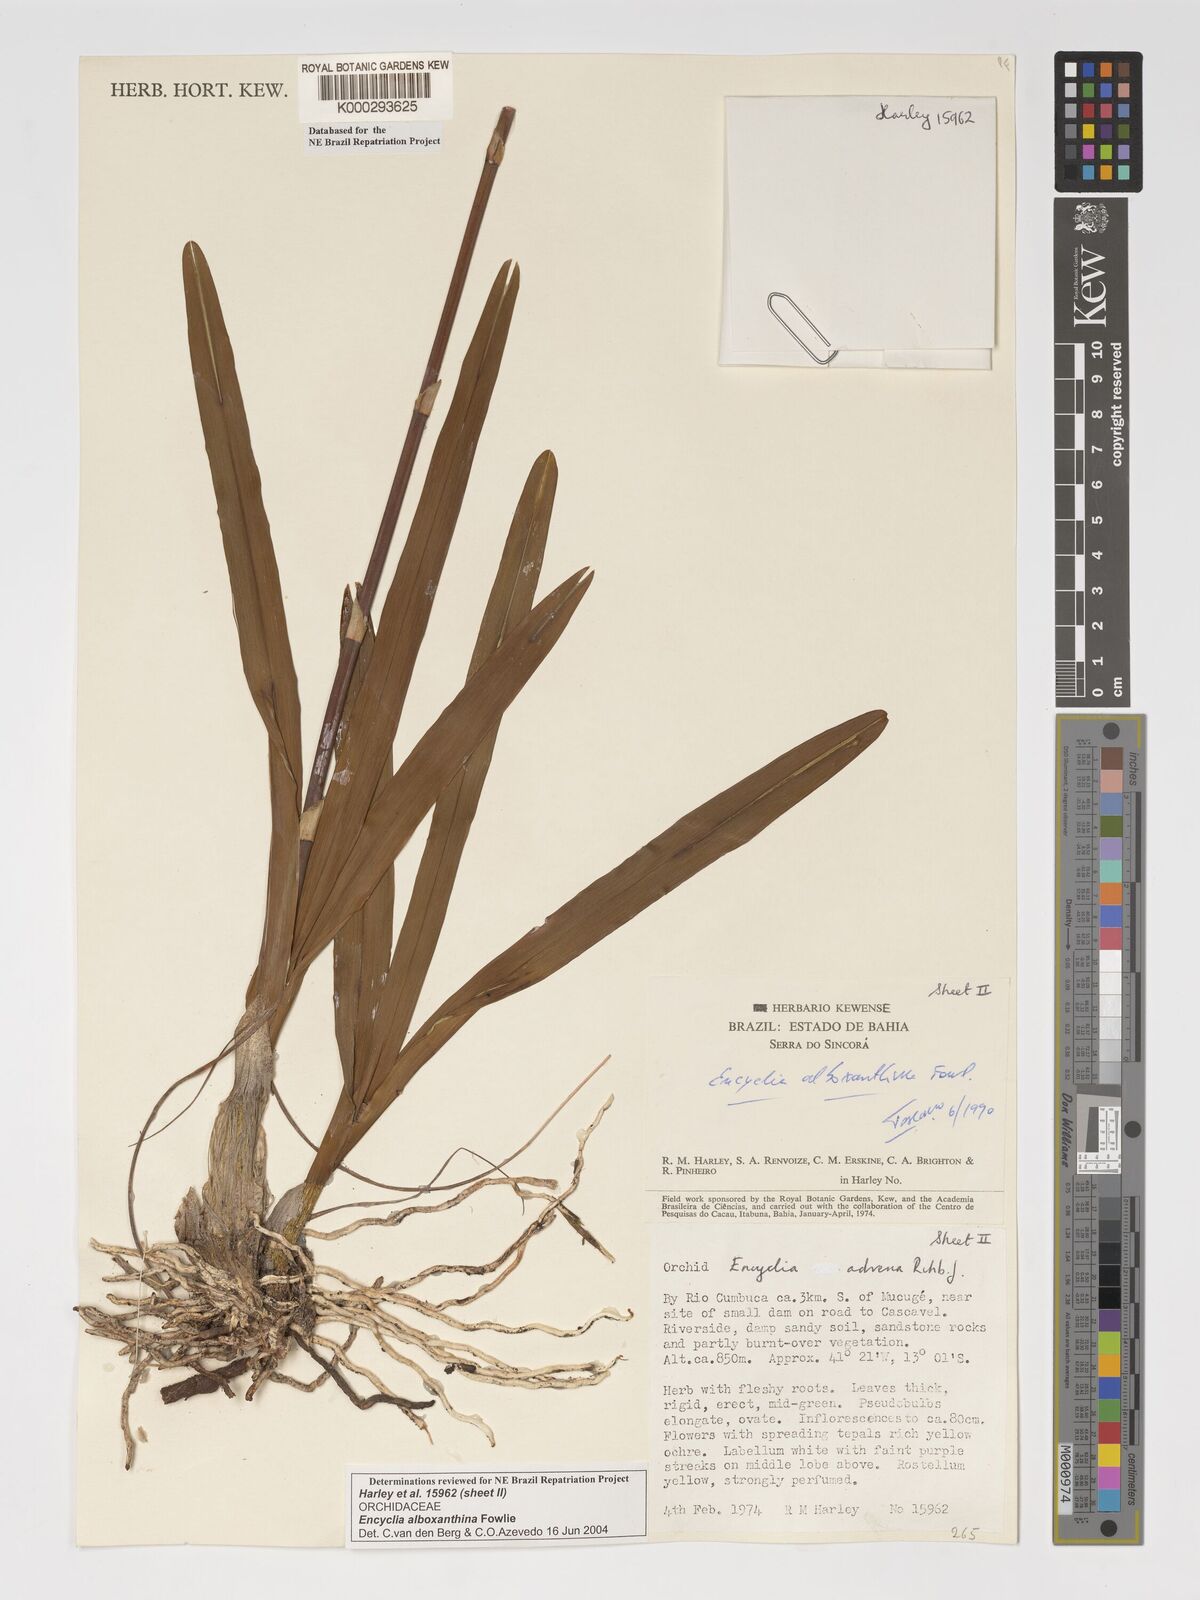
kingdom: Plantae
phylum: Tracheophyta
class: Liliopsida
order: Asparagales
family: Orchidaceae
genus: Encyclia
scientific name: Encyclia alboxanthina
